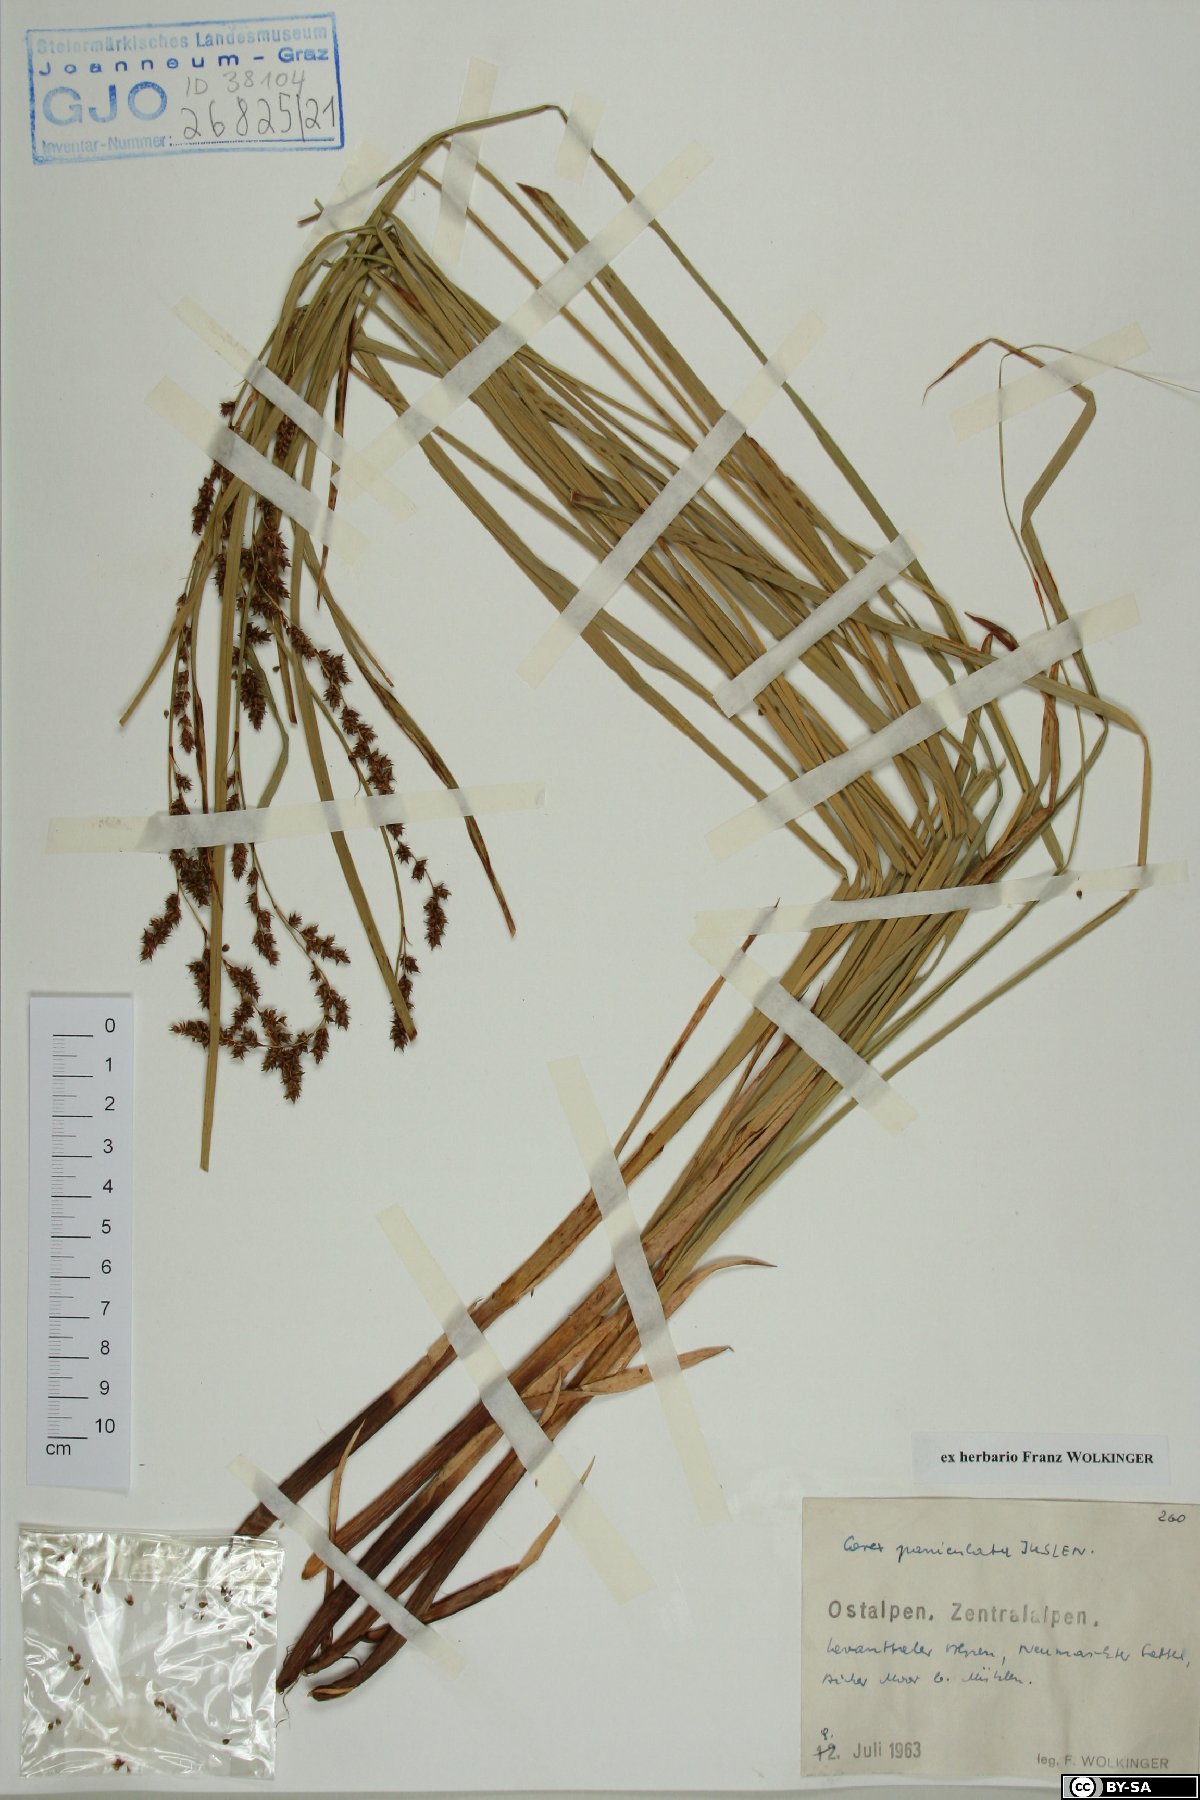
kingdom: Plantae
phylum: Tracheophyta
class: Liliopsida
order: Poales
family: Cyperaceae
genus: Carex
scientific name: Carex paniculata
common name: Greater tussock-sedge
